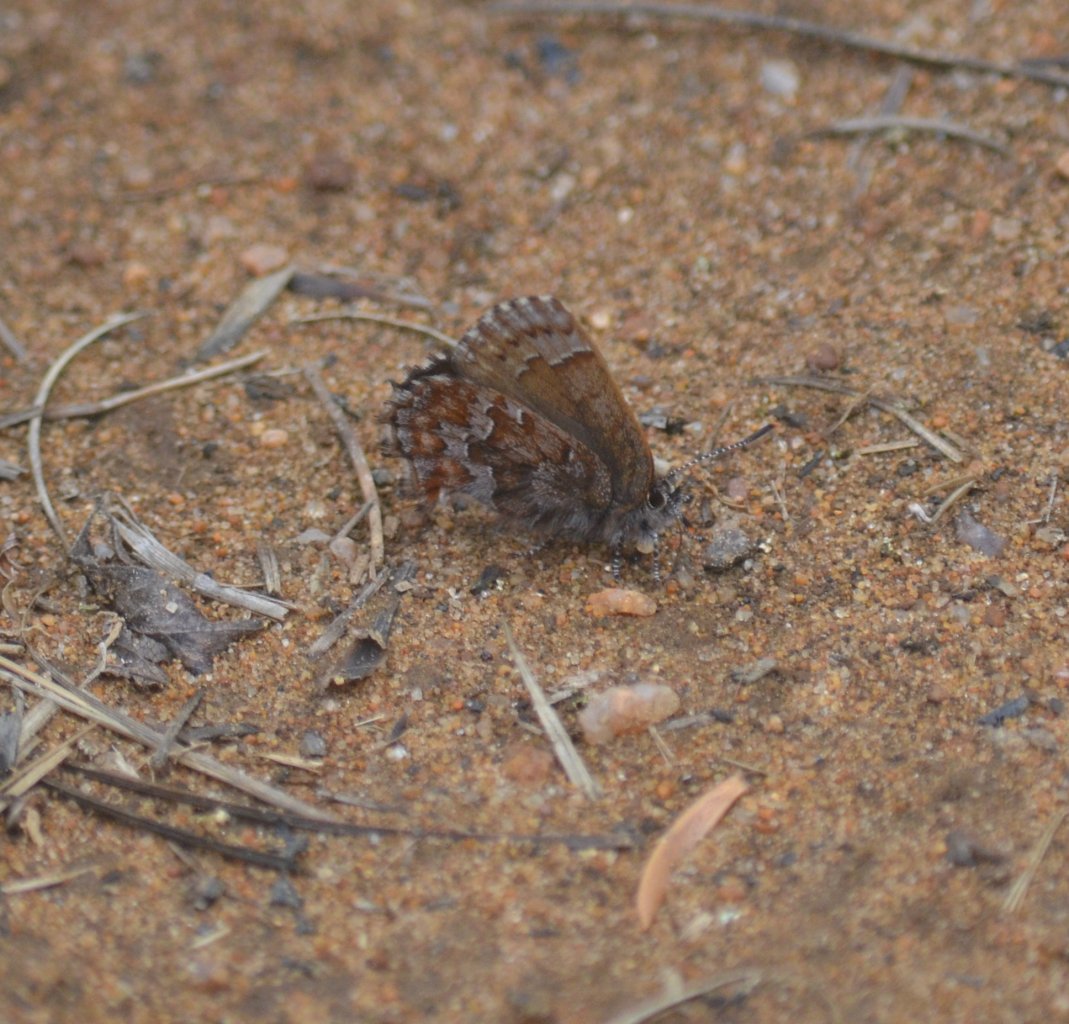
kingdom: Animalia
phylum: Arthropoda
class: Insecta
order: Lepidoptera
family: Lycaenidae
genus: Incisalia
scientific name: Incisalia niphon
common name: Eastern Pine Elfin
